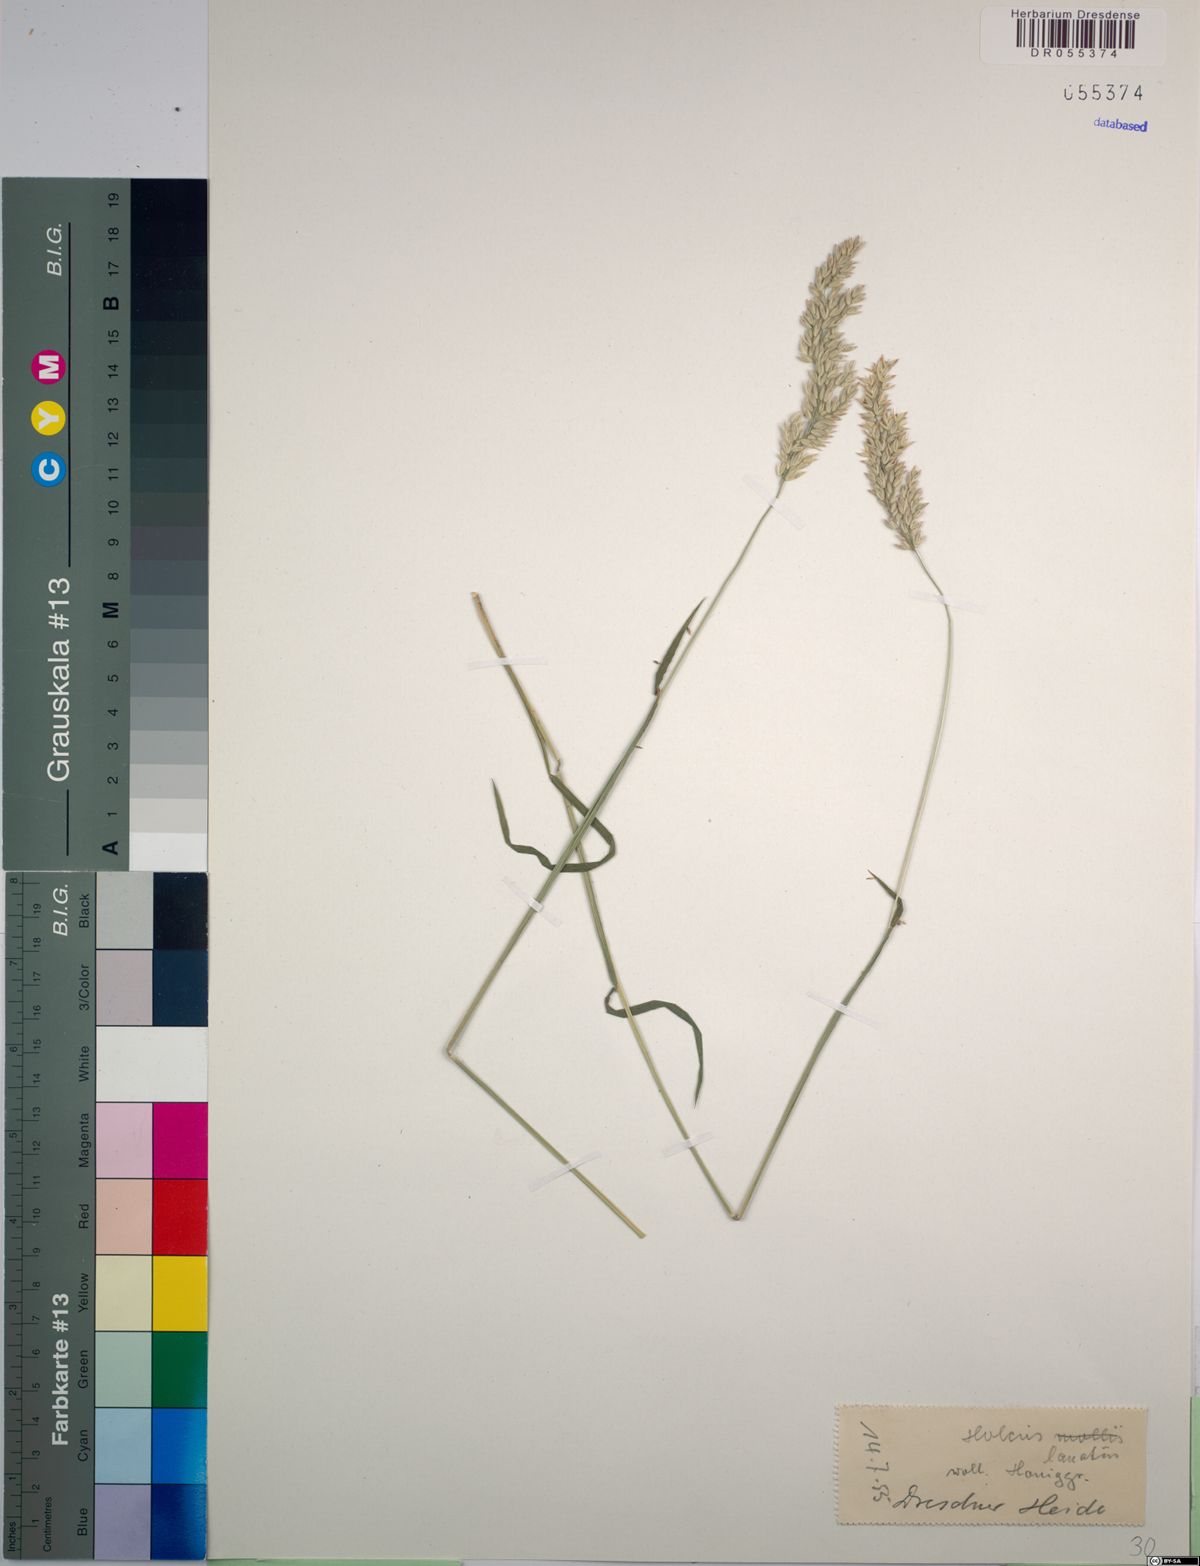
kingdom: Plantae
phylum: Tracheophyta
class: Liliopsida
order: Poales
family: Poaceae
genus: Holcus
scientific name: Holcus lanatus
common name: Yorkshire-fog
